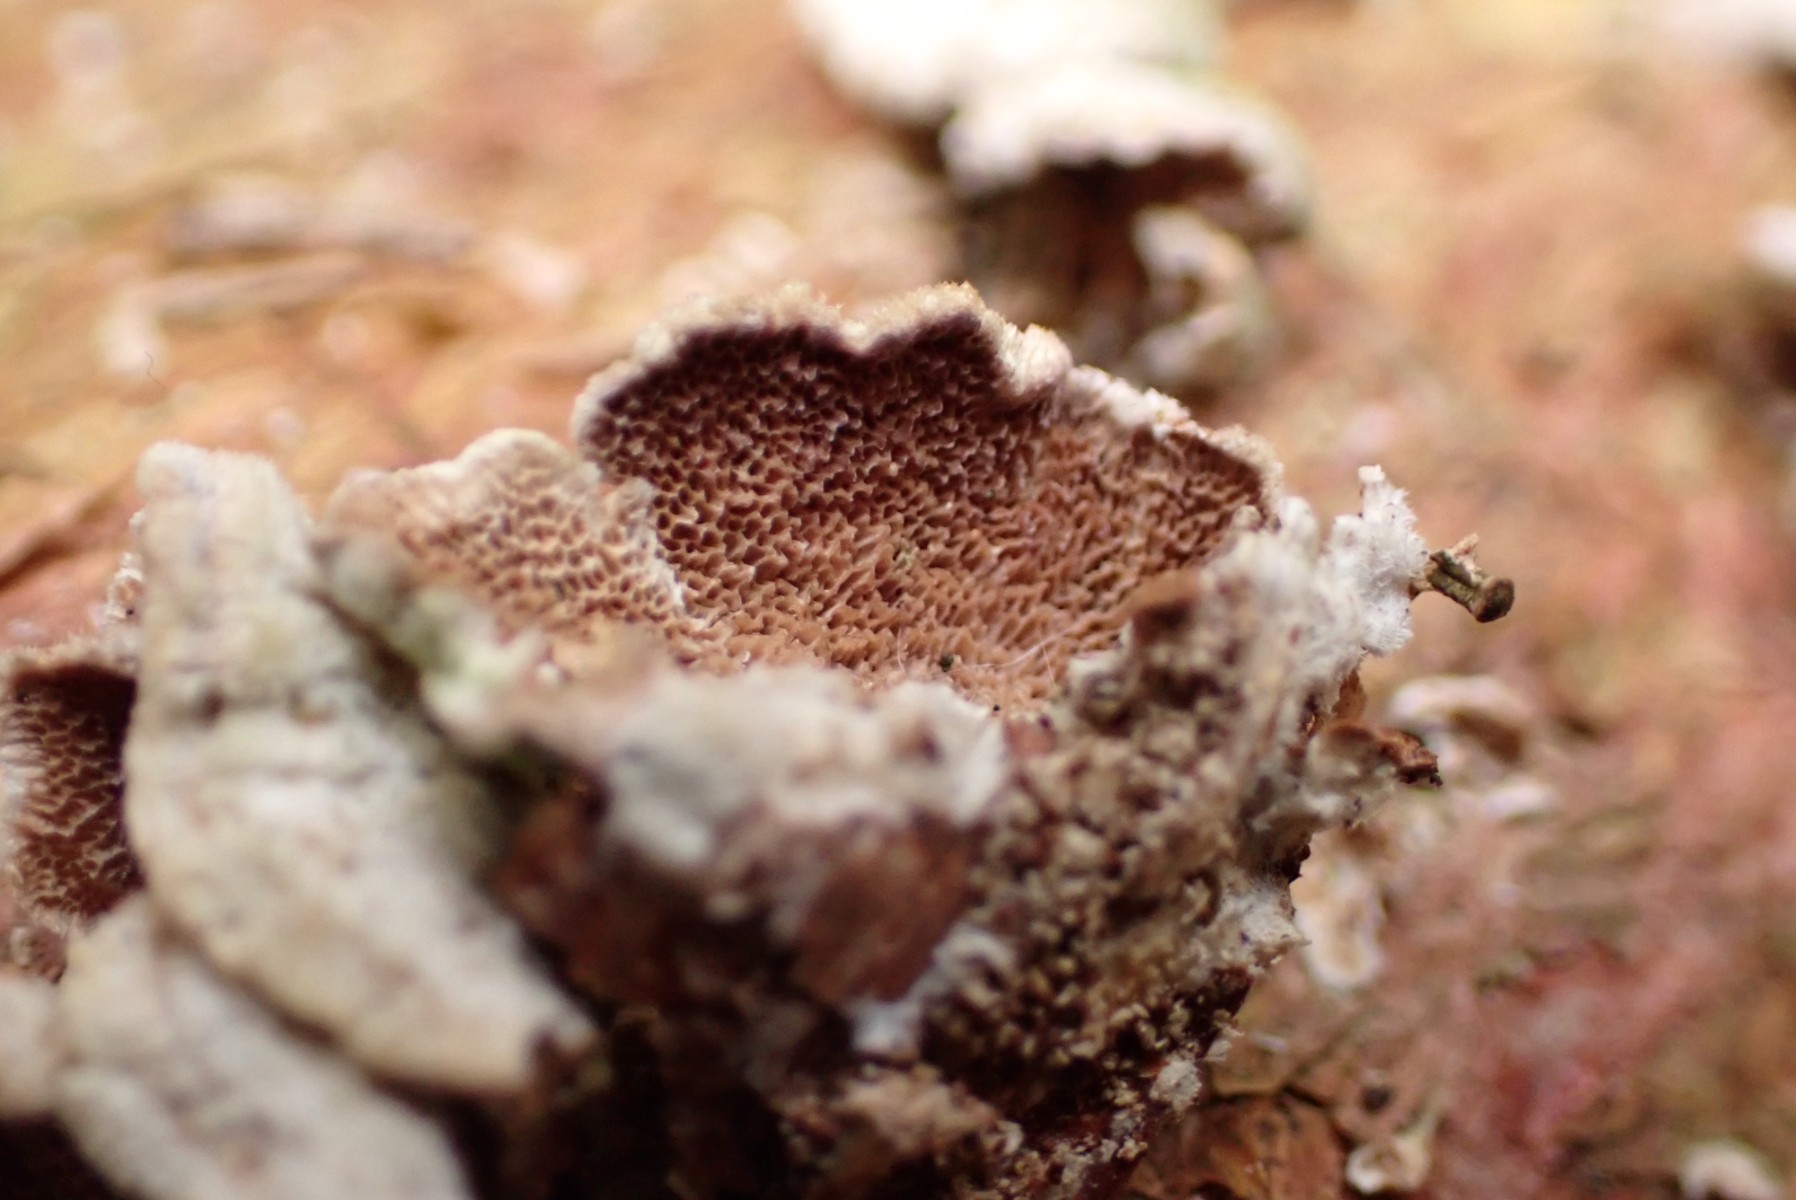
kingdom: Fungi
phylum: Basidiomycota
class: Agaricomycetes
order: Hymenochaetales
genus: Trichaptum
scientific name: Trichaptum abietinum
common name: almindelig violporesvamp
